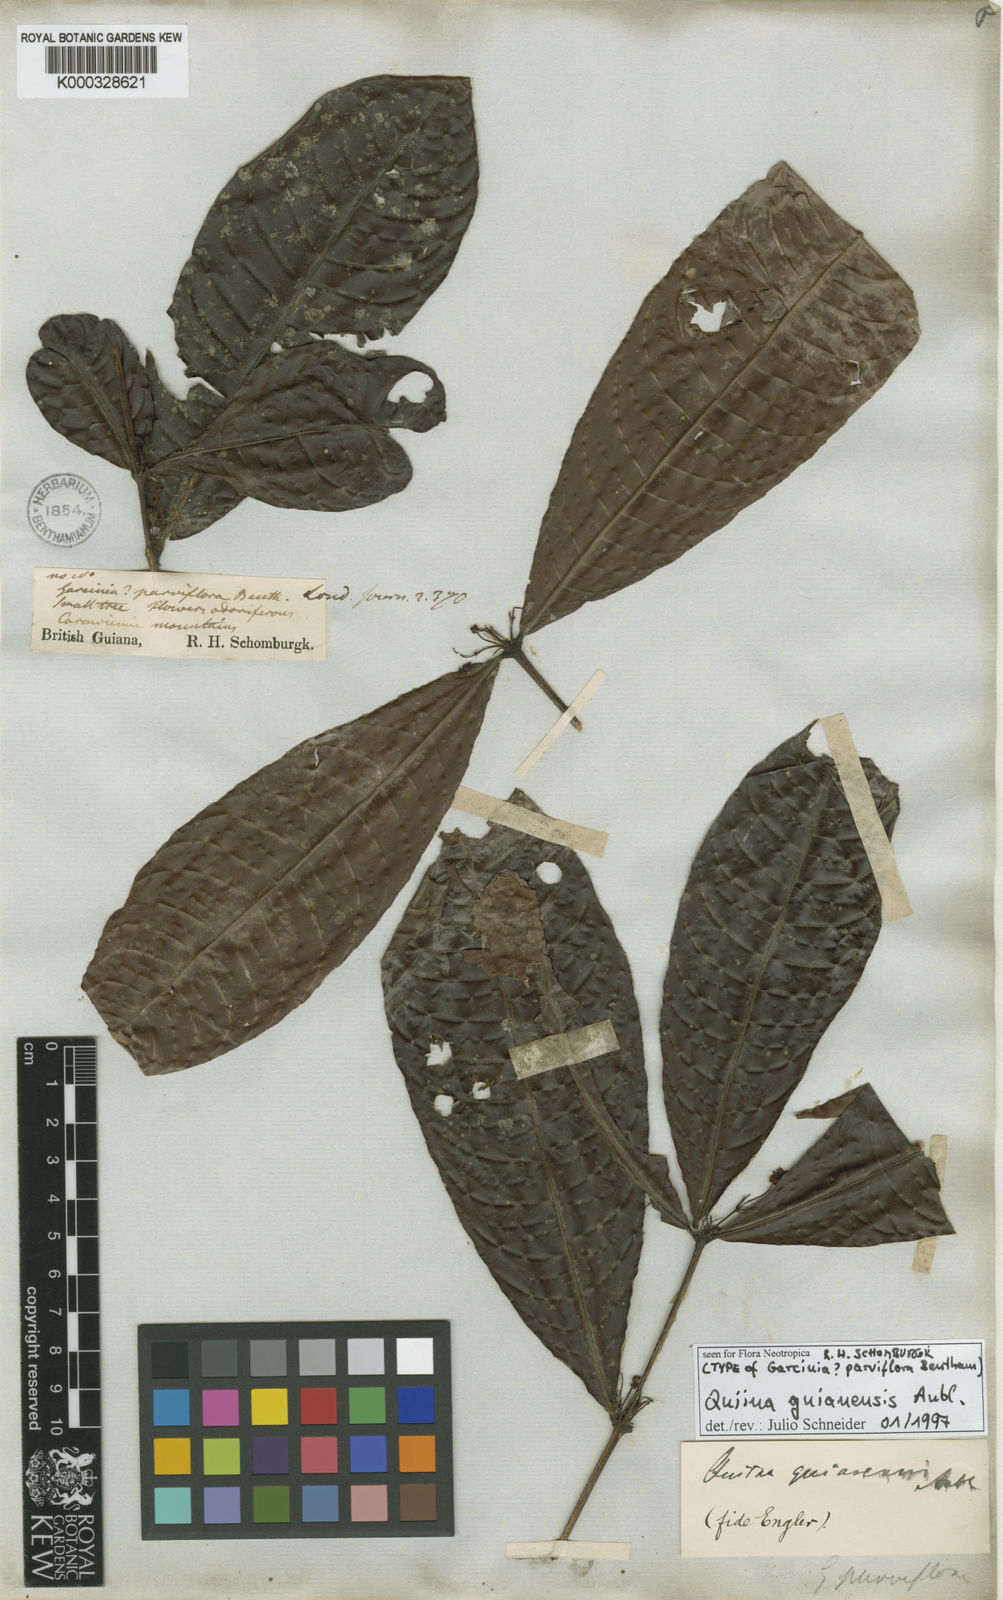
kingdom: Plantae
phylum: Tracheophyta
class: Magnoliopsida
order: Malpighiales
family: Quiinaceae
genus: Quiina
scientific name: Quiina guianensis
